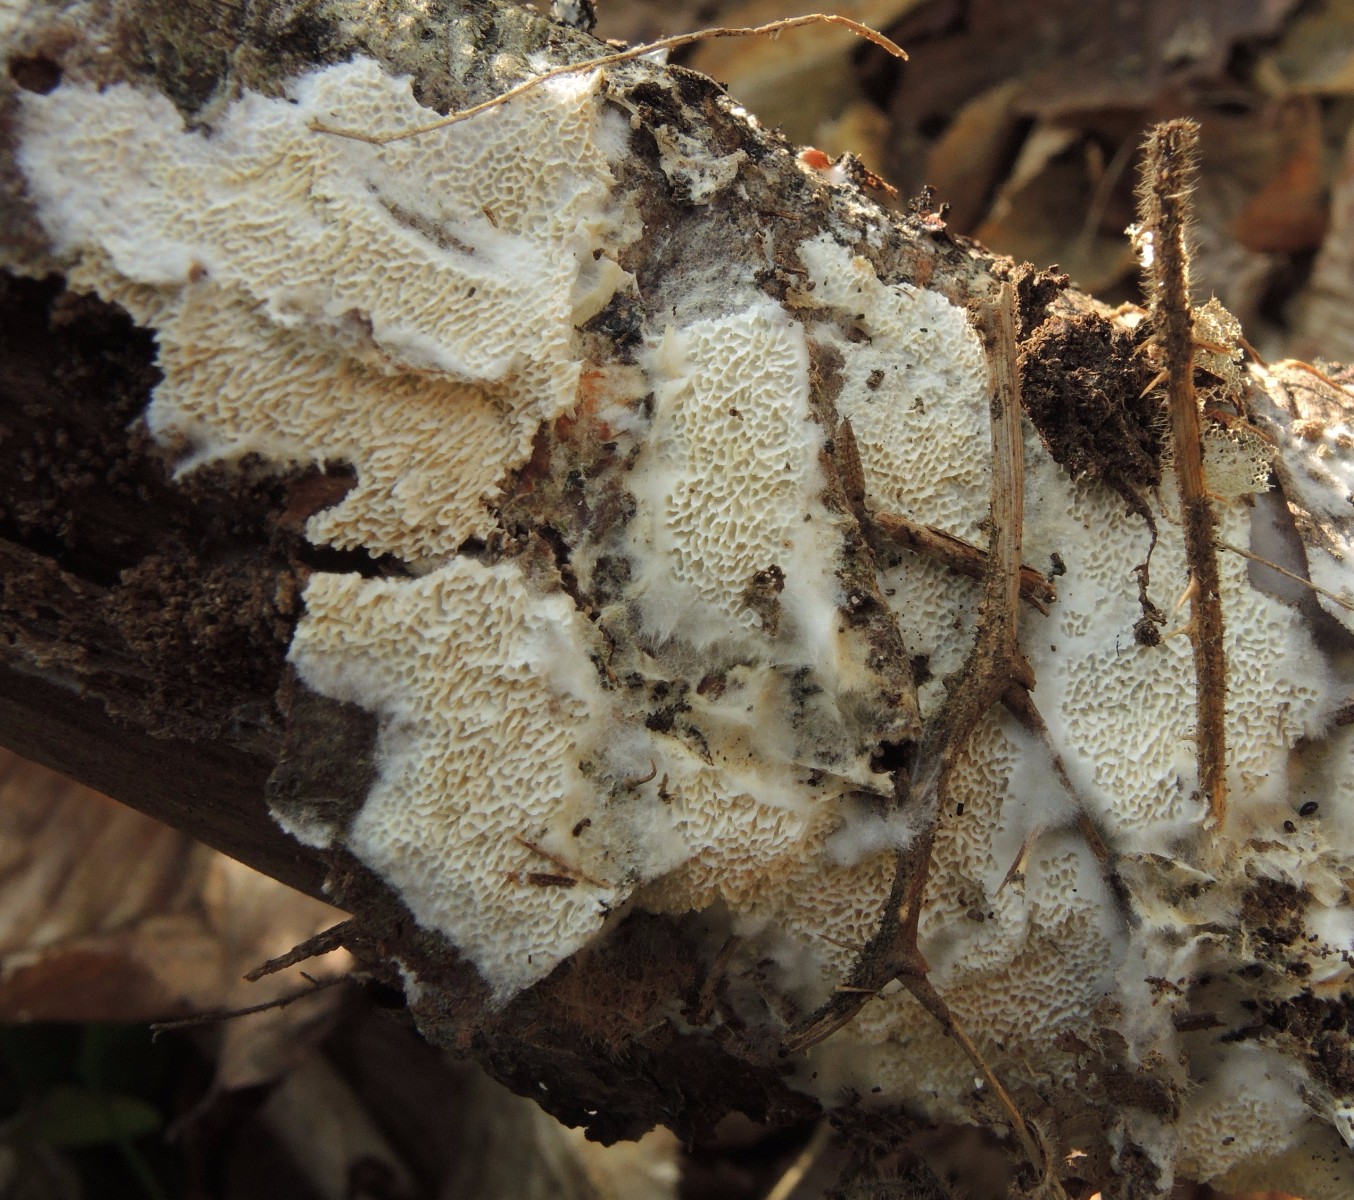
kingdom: Fungi
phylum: Basidiomycota
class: Agaricomycetes
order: Hymenochaetales
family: Schizoporaceae
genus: Xylodon
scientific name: Xylodon subtropicus
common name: labyrint-tandsvamp
